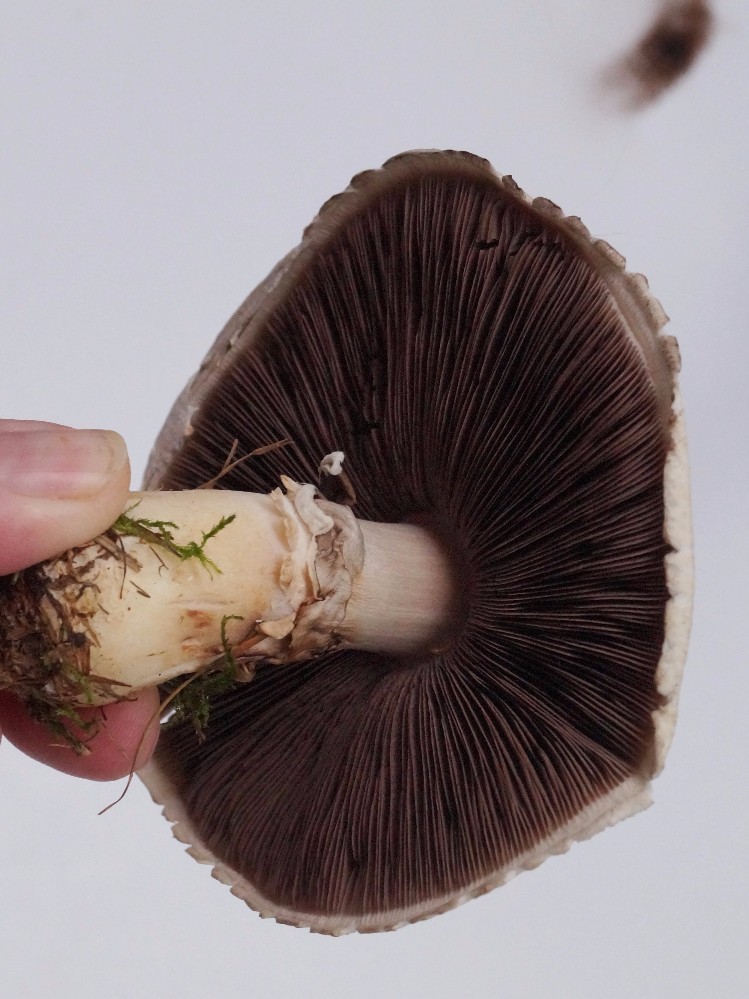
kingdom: Fungi
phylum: Basidiomycota
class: Agaricomycetes
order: Agaricales
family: Agaricaceae
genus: Agaricus
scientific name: Agaricus
